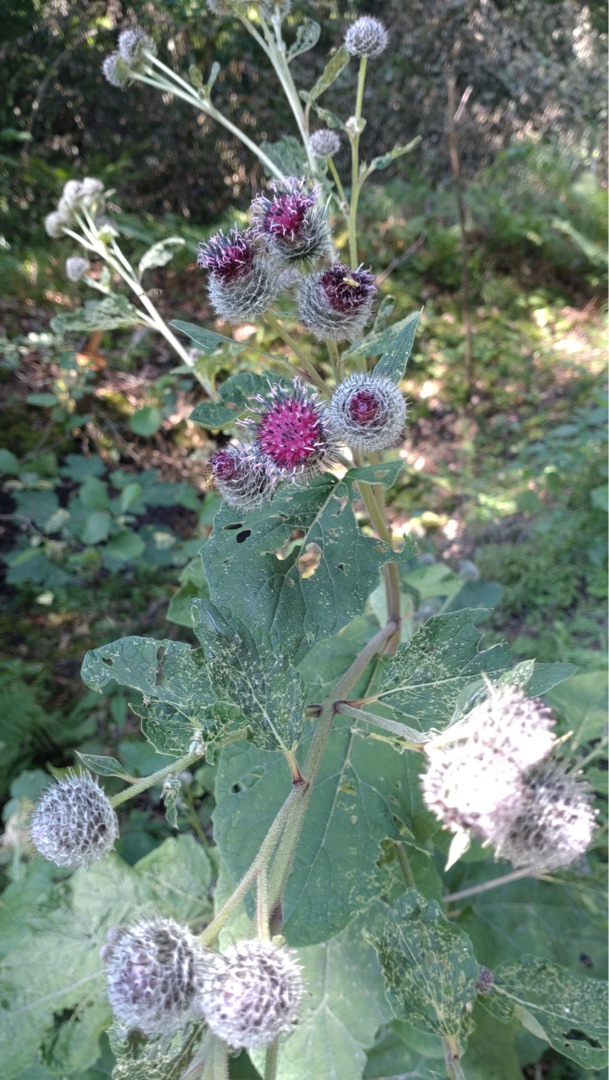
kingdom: Plantae
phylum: Tracheophyta
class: Magnoliopsida
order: Asterales
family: Asteraceae
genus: Arctium
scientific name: Arctium tomentosum
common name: Filtet burre
